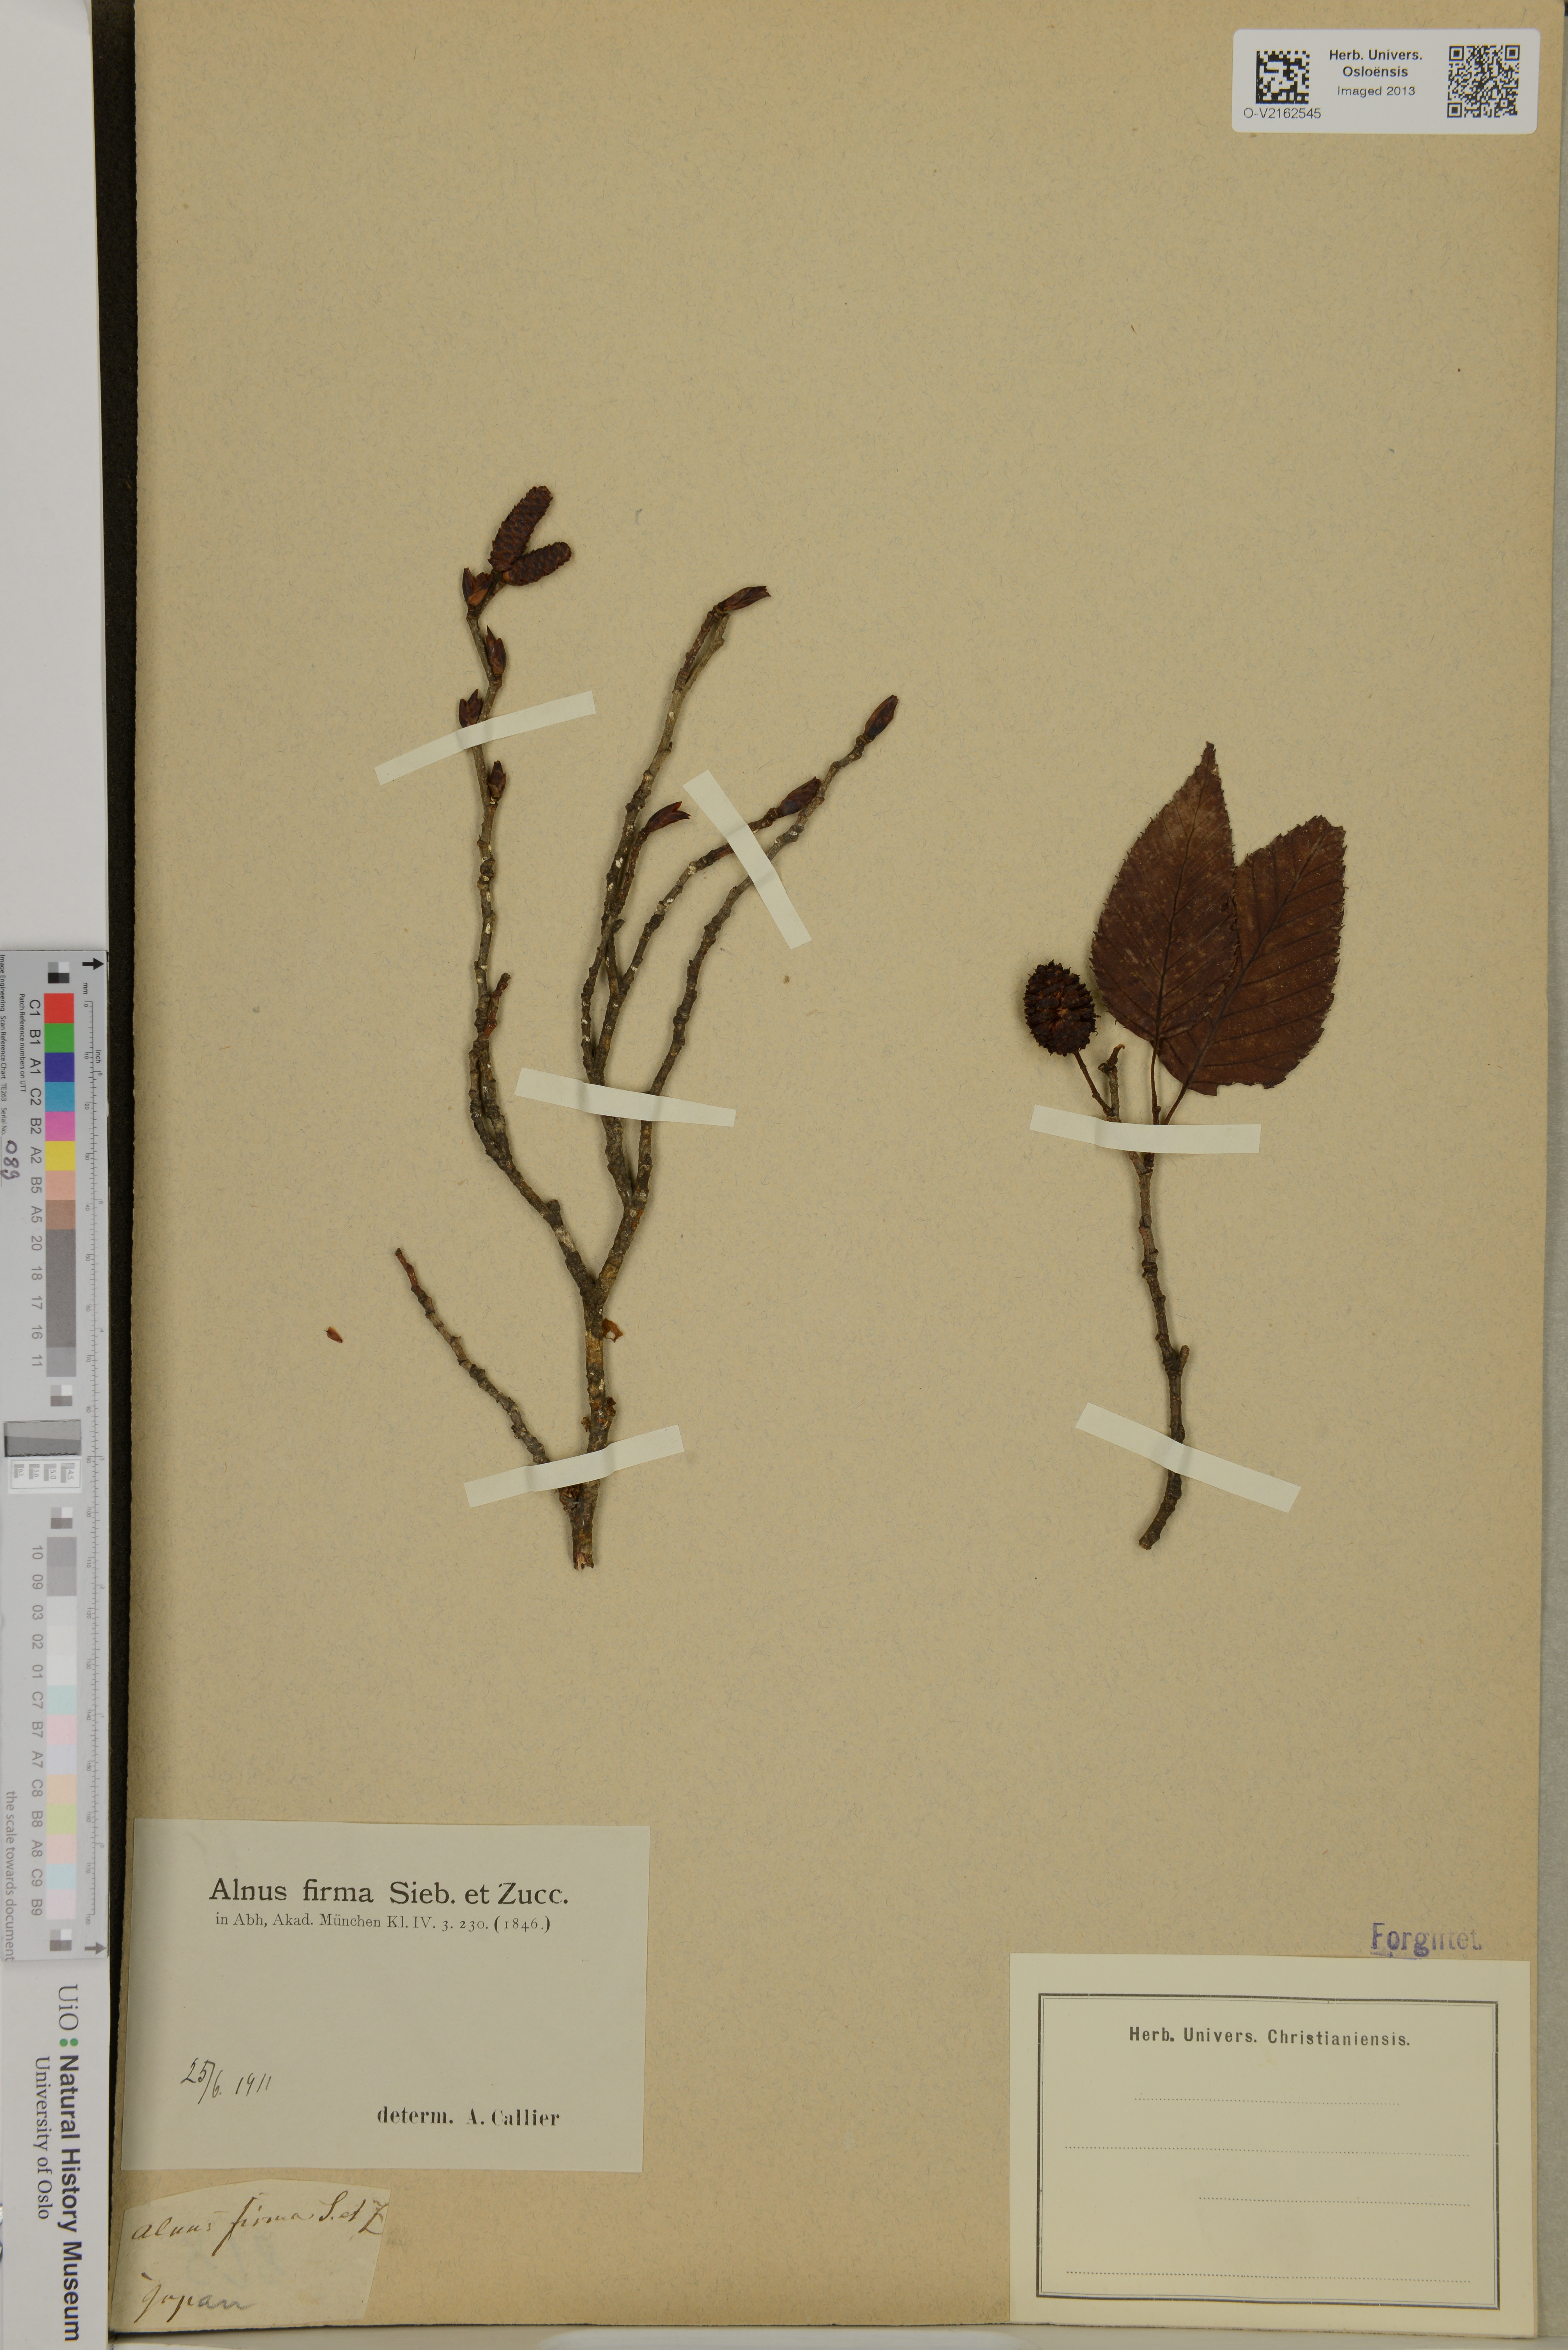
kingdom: Plantae
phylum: Tracheophyta
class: Magnoliopsida
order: Fagales
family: Betulaceae
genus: Alnus
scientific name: Alnus firma
